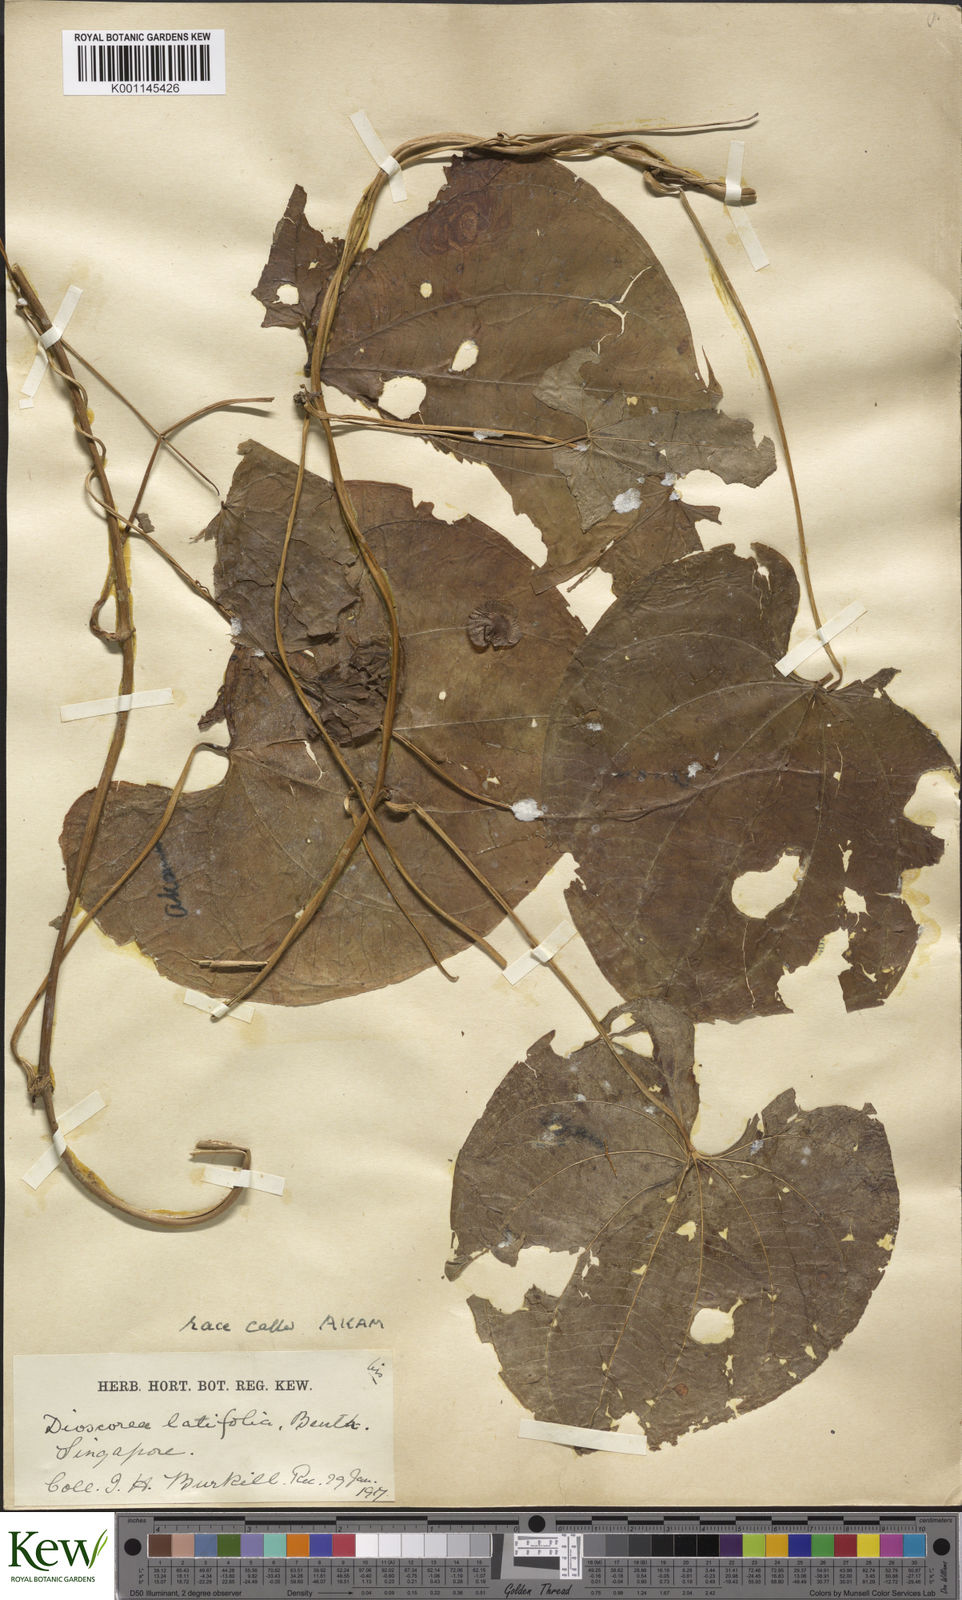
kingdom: Plantae
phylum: Tracheophyta
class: Liliopsida
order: Dioscoreales
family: Dioscoreaceae
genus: Dioscorea
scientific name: Dioscorea bulbifera
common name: Air yam
